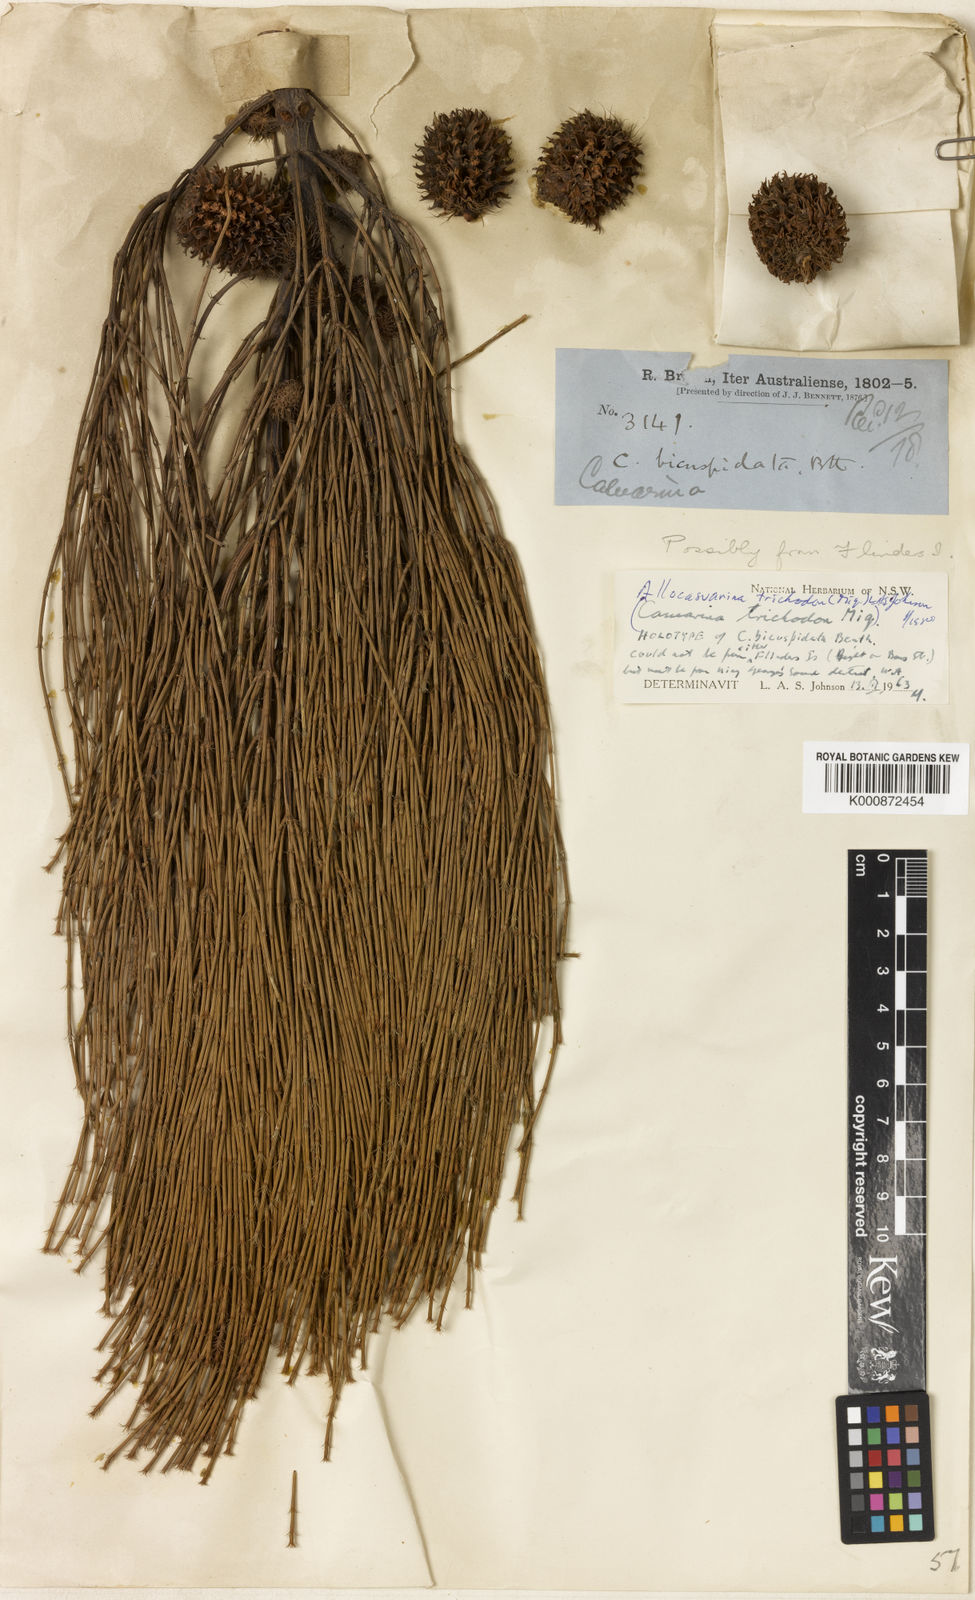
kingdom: Plantae
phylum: Tracheophyta
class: Magnoliopsida
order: Fagales
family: Casuarinaceae
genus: Allocasuarina
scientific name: Allocasuarina trichodon
